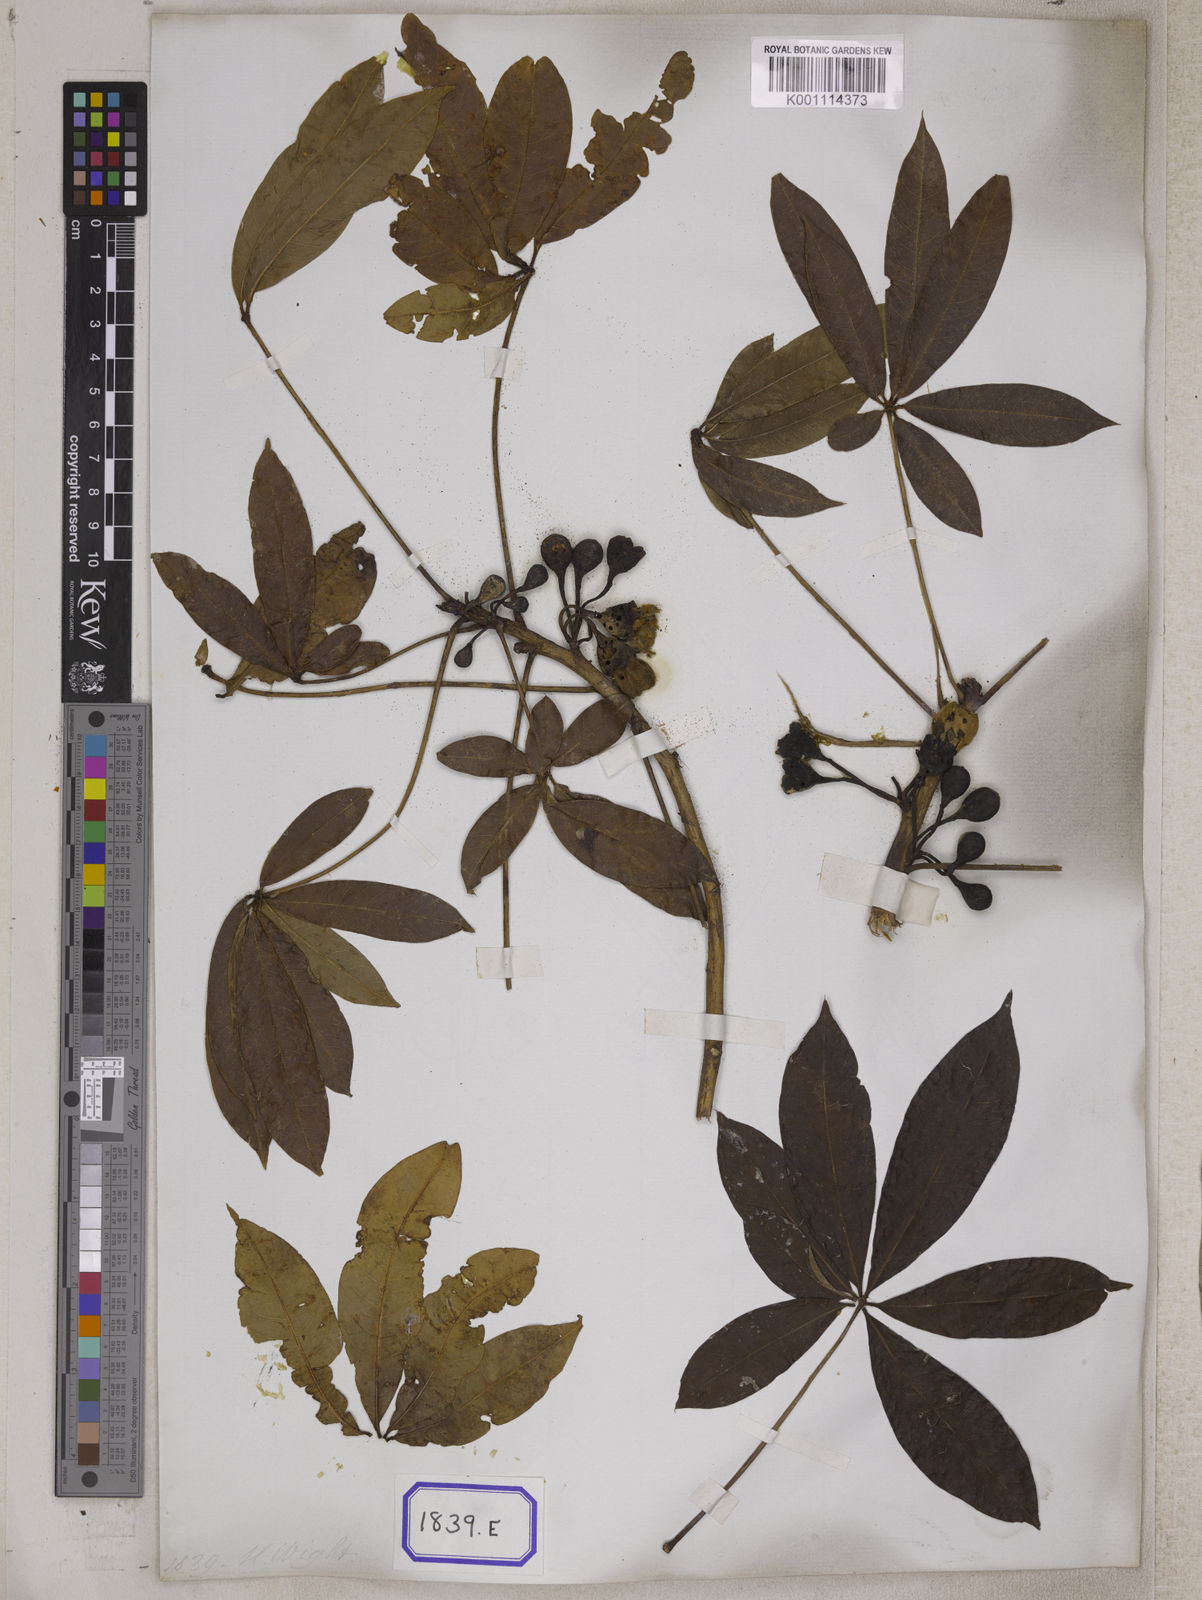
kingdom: Plantae
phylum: Tracheophyta
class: Magnoliopsida
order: Malvales
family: Malvaceae
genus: Ceiba
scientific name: Ceiba pentandra
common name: Kapok
